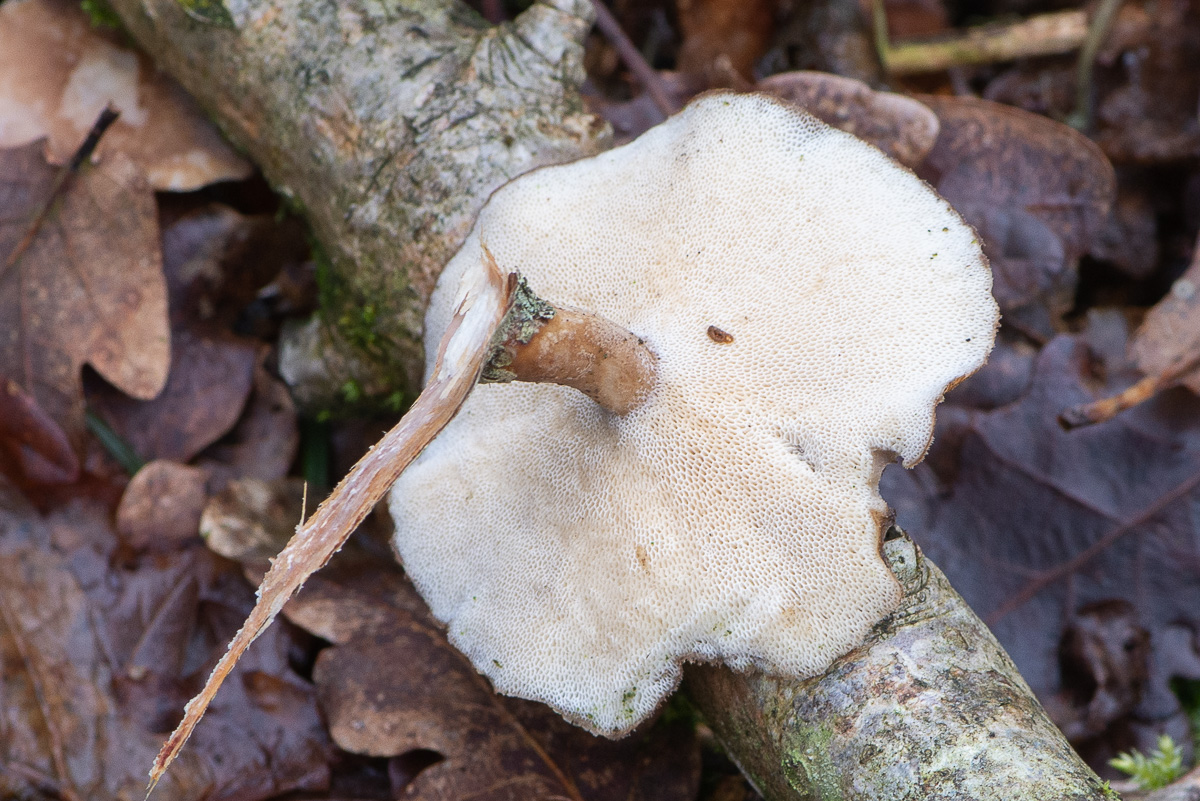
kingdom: Fungi
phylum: Basidiomycota
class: Agaricomycetes
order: Polyporales
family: Polyporaceae
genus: Lentinus
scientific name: Lentinus brumalis
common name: vinter-stilkporesvamp
